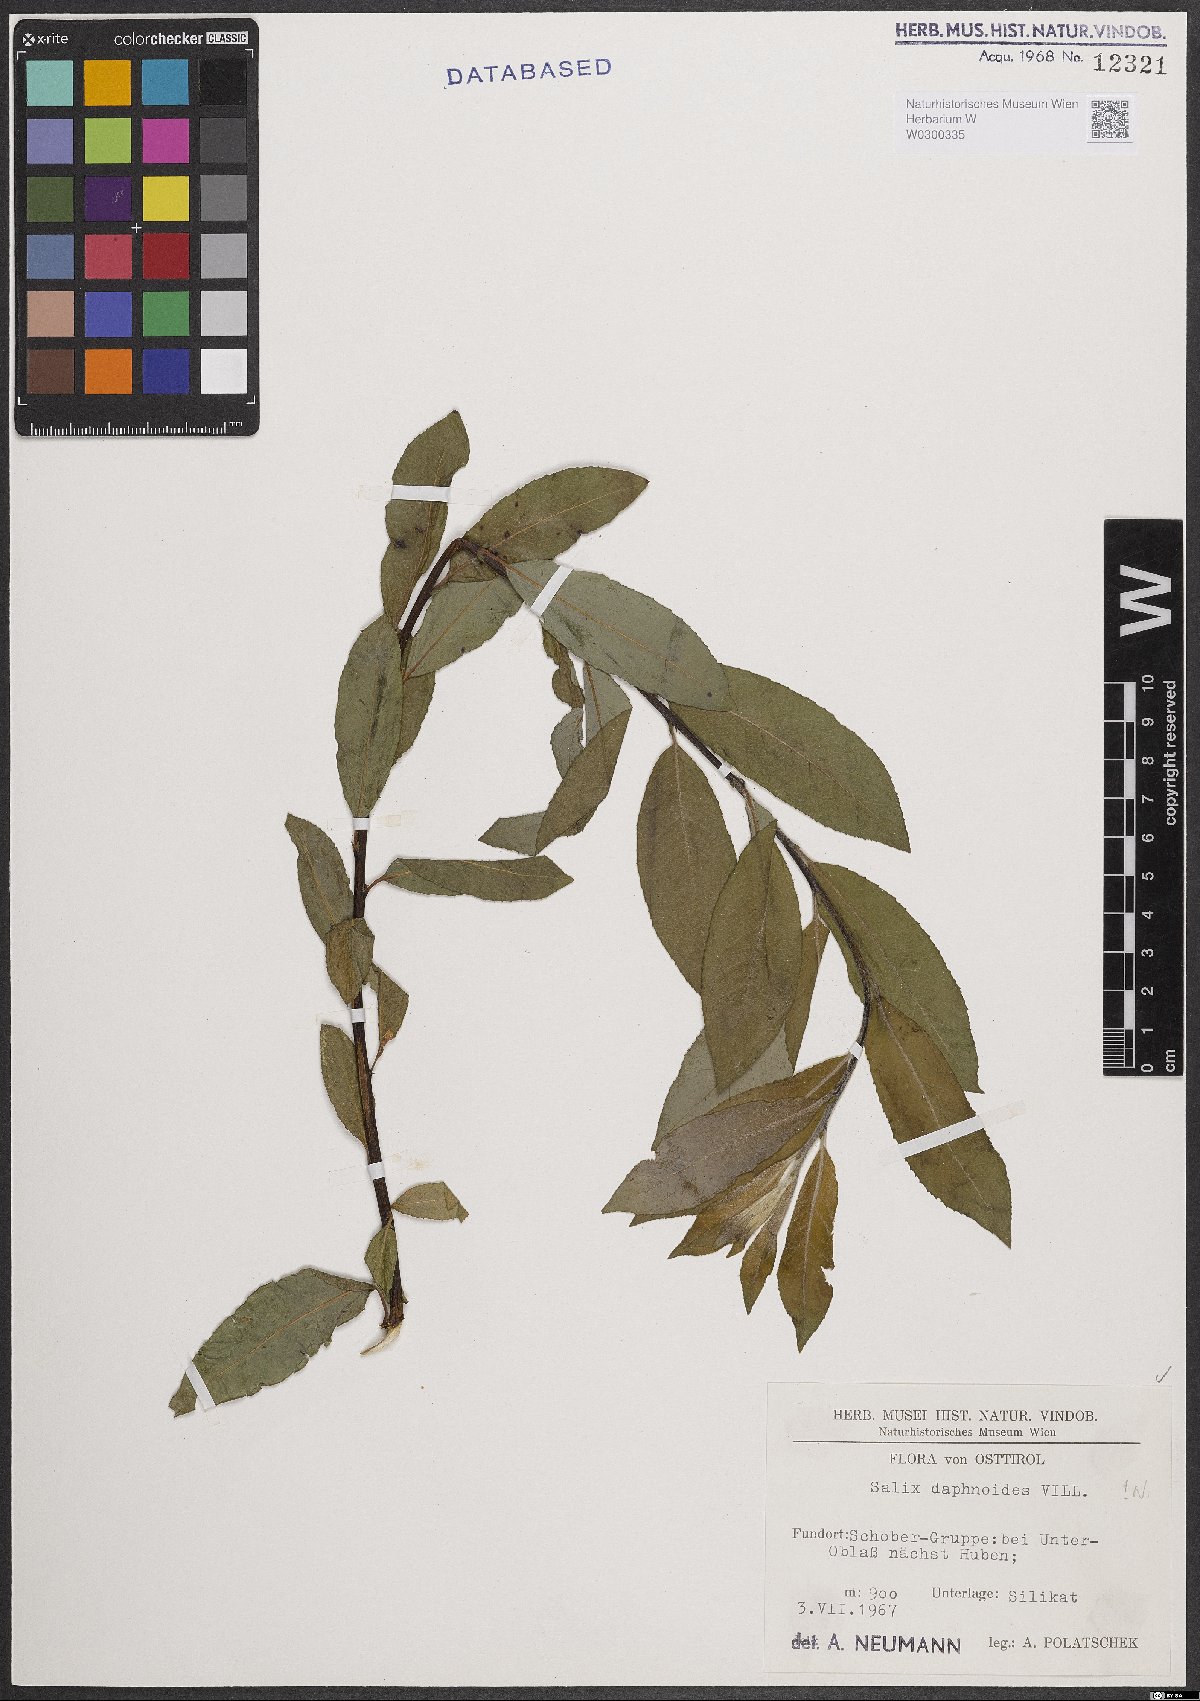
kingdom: Plantae
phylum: Tracheophyta
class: Magnoliopsida
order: Malpighiales
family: Salicaceae
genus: Salix
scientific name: Salix daphnoides
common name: European violet-willow
